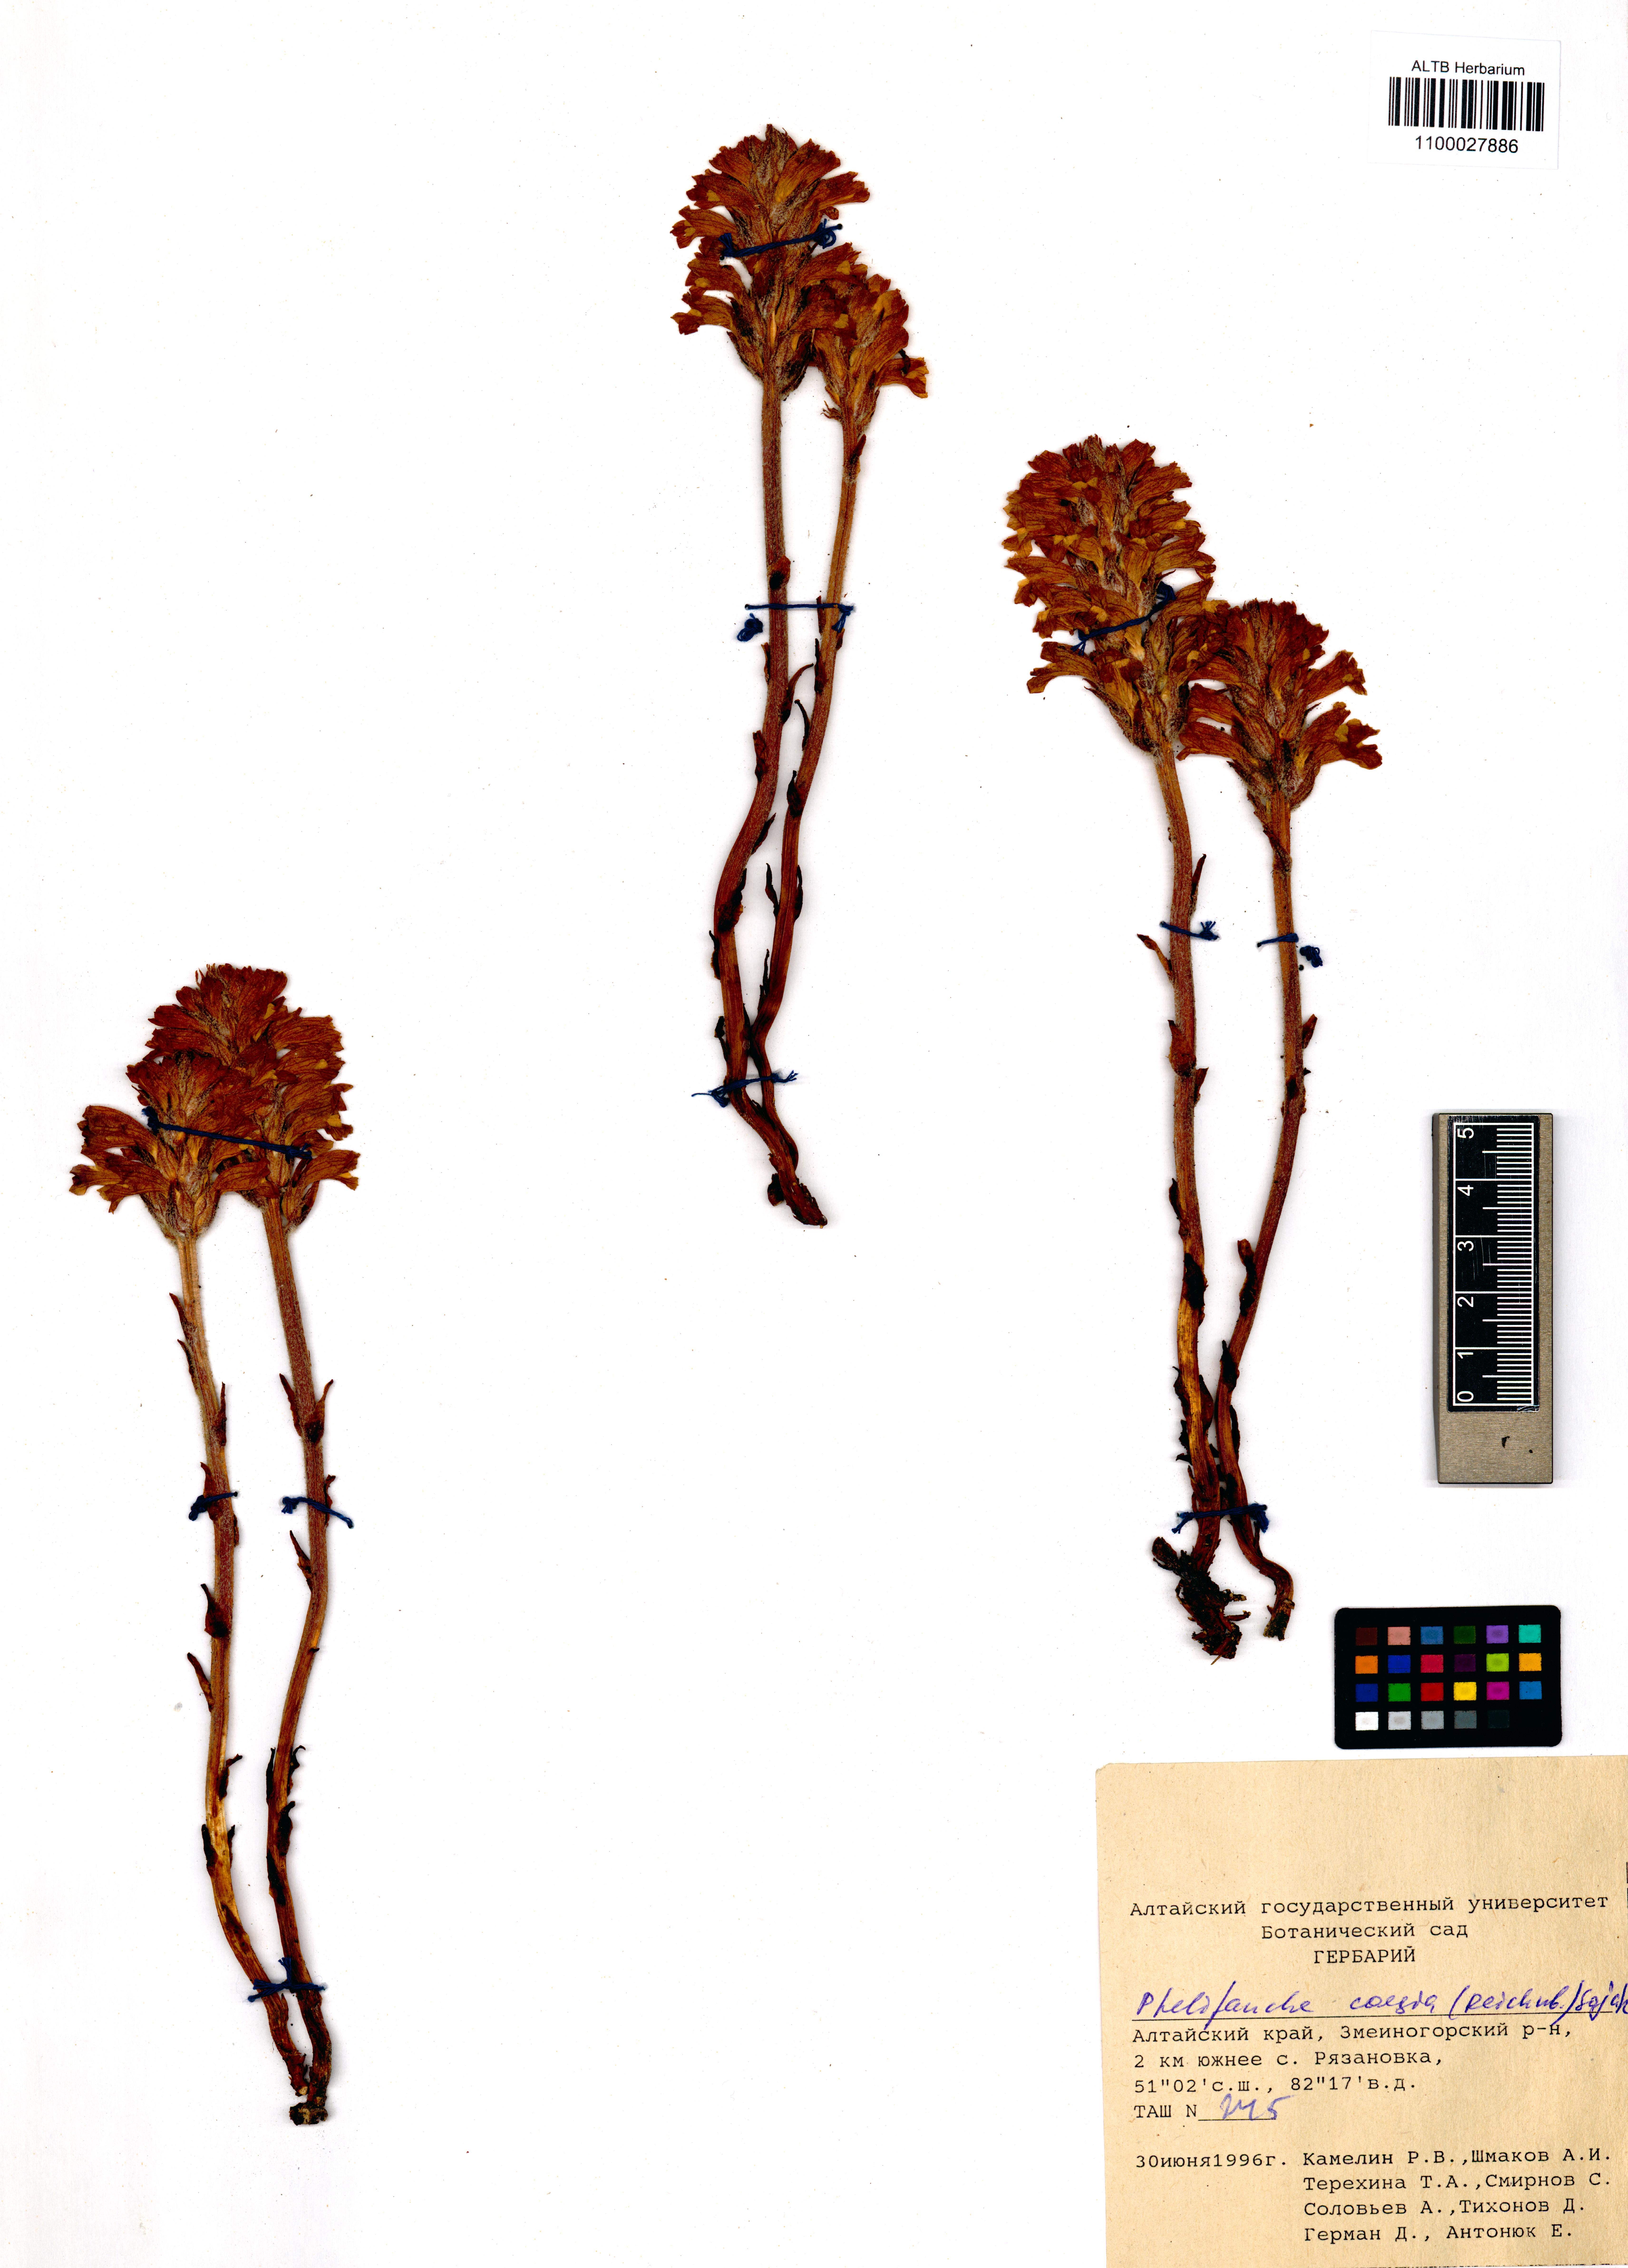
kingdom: Plantae
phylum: Tracheophyta
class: Magnoliopsida
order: Lamiales
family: Orobanchaceae
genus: Phelipanche
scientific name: Phelipanche caesia
